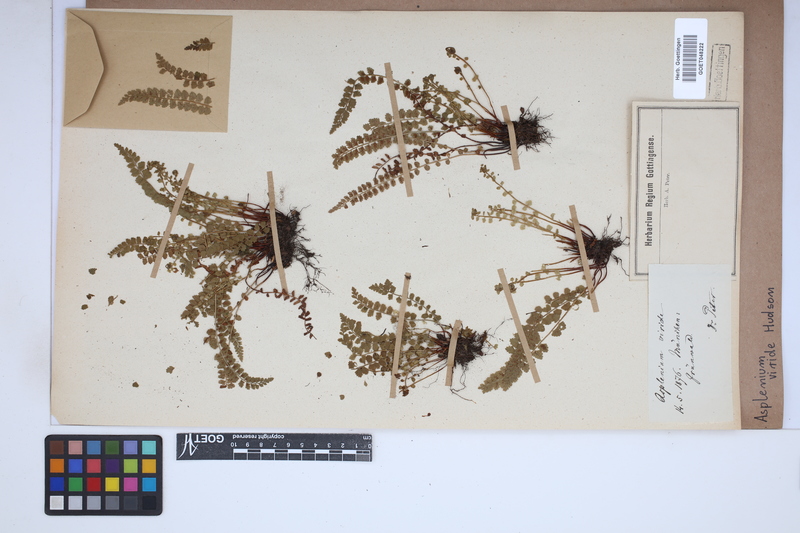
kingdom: Plantae
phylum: Tracheophyta
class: Polypodiopsida
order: Polypodiales
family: Aspleniaceae
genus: Asplenium
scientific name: Asplenium viride
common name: Green spleenwort
